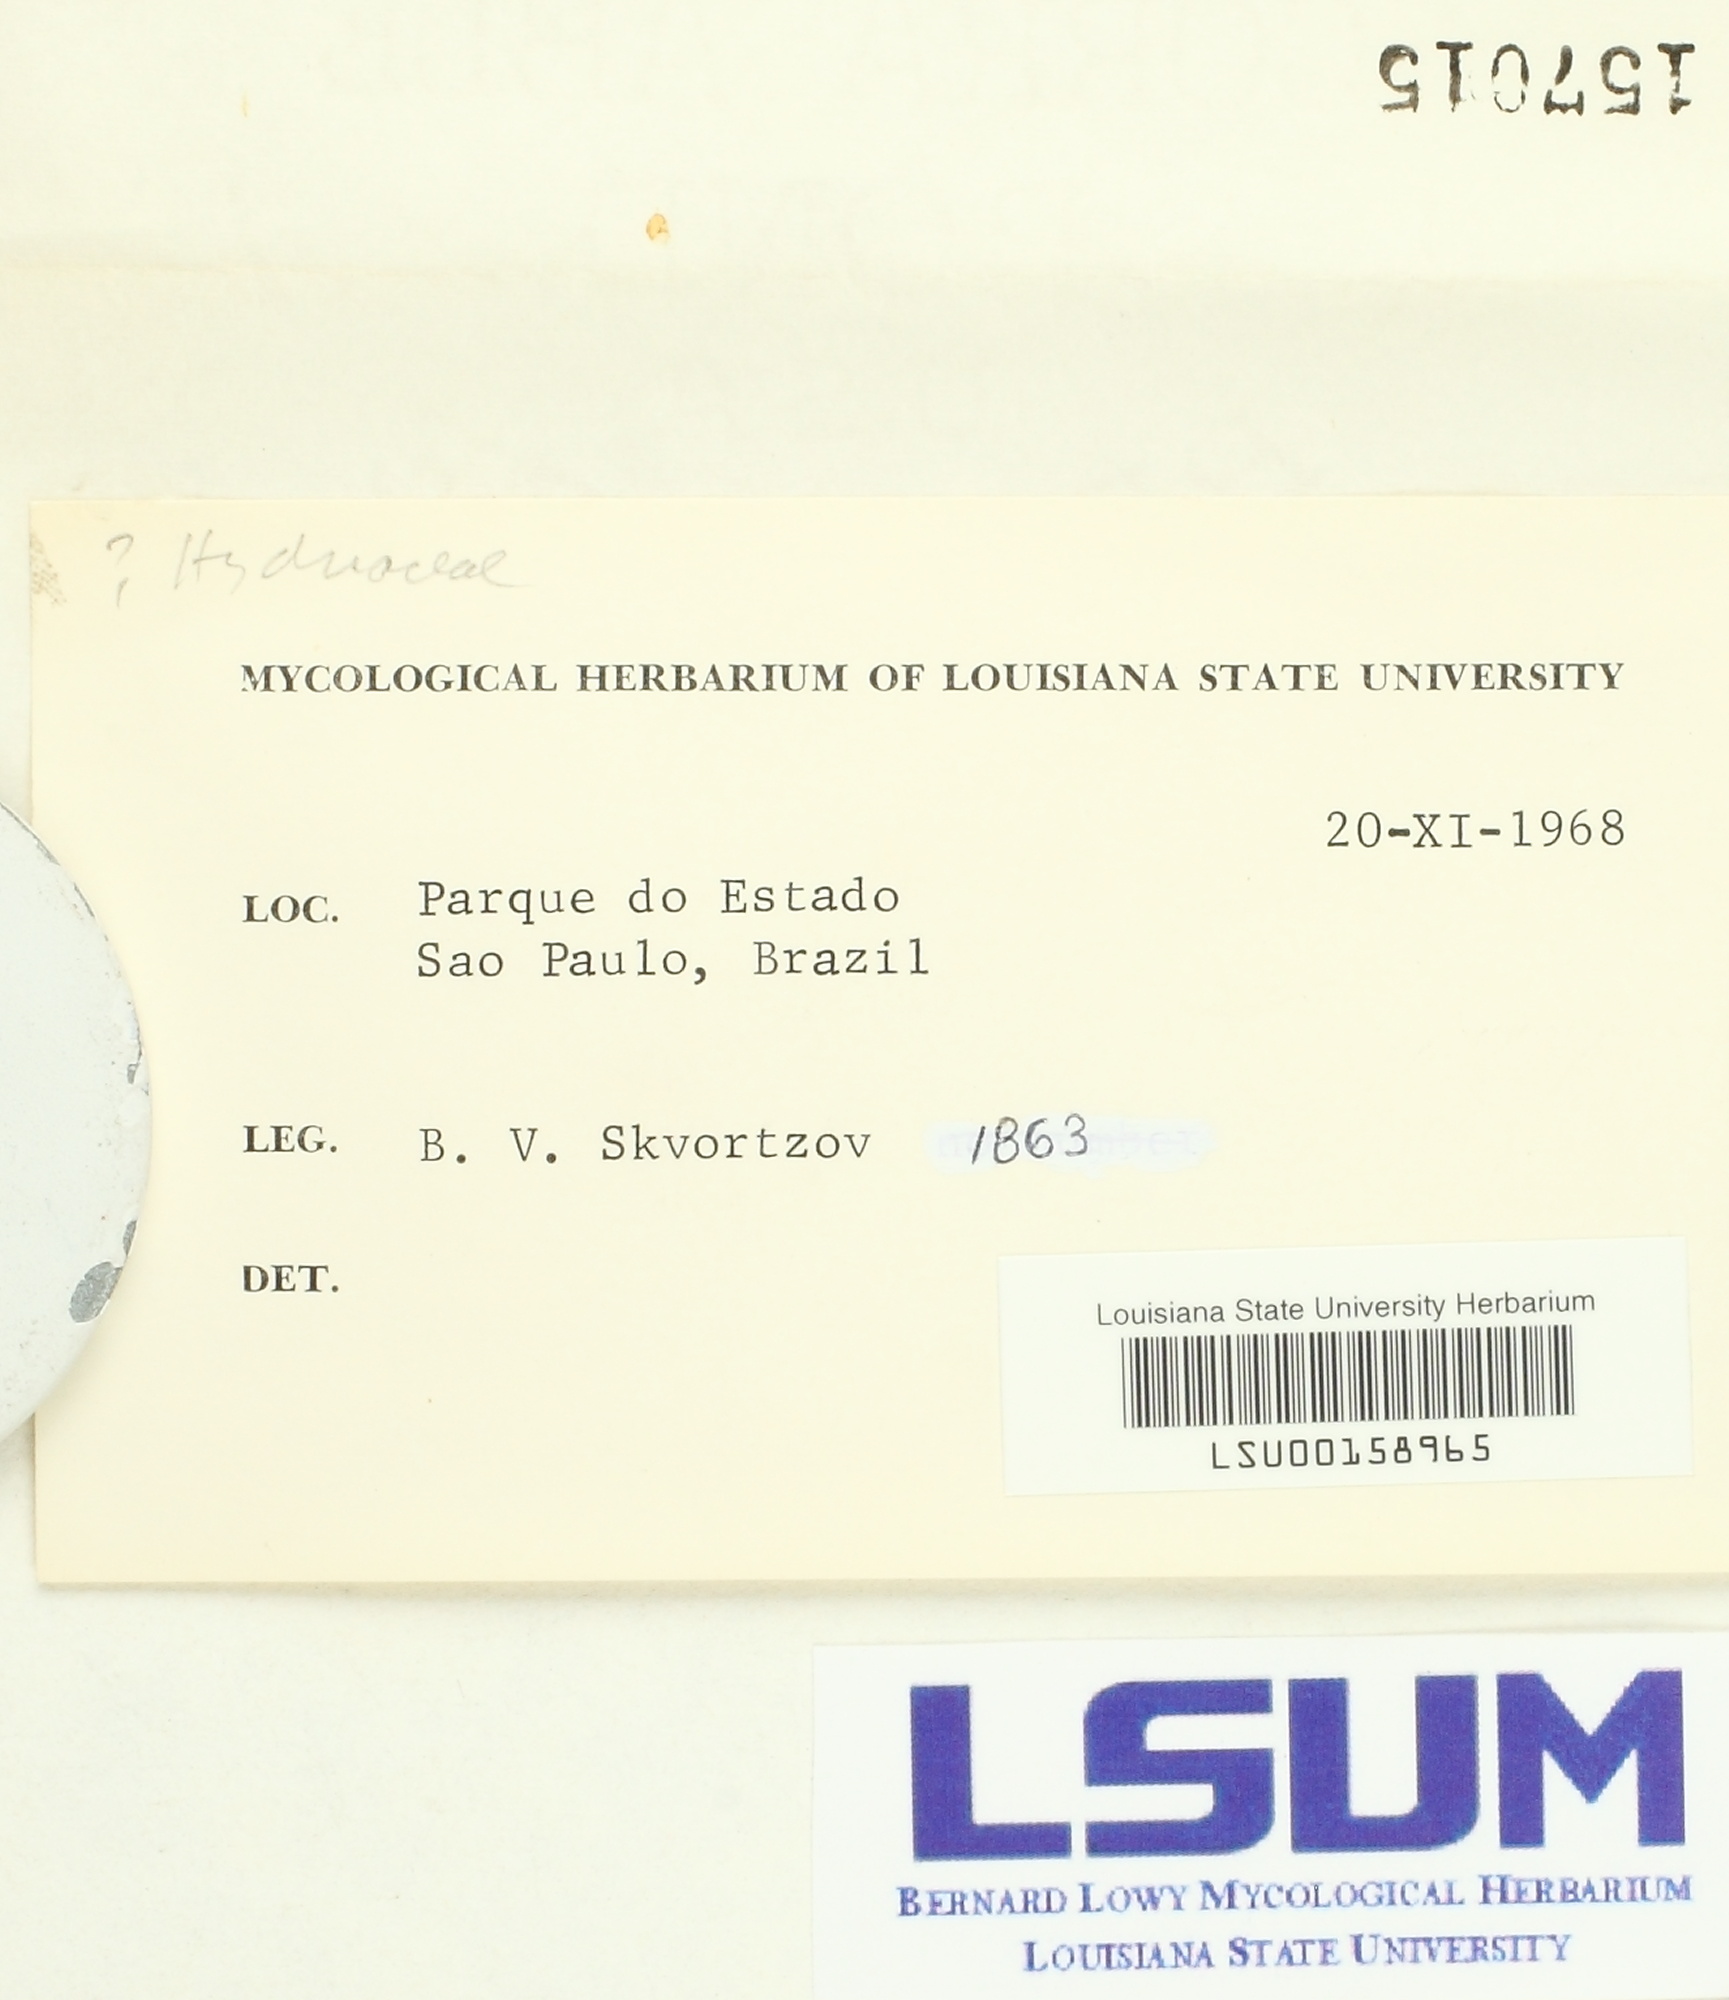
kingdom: Fungi
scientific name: Fungi
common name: Fungi
